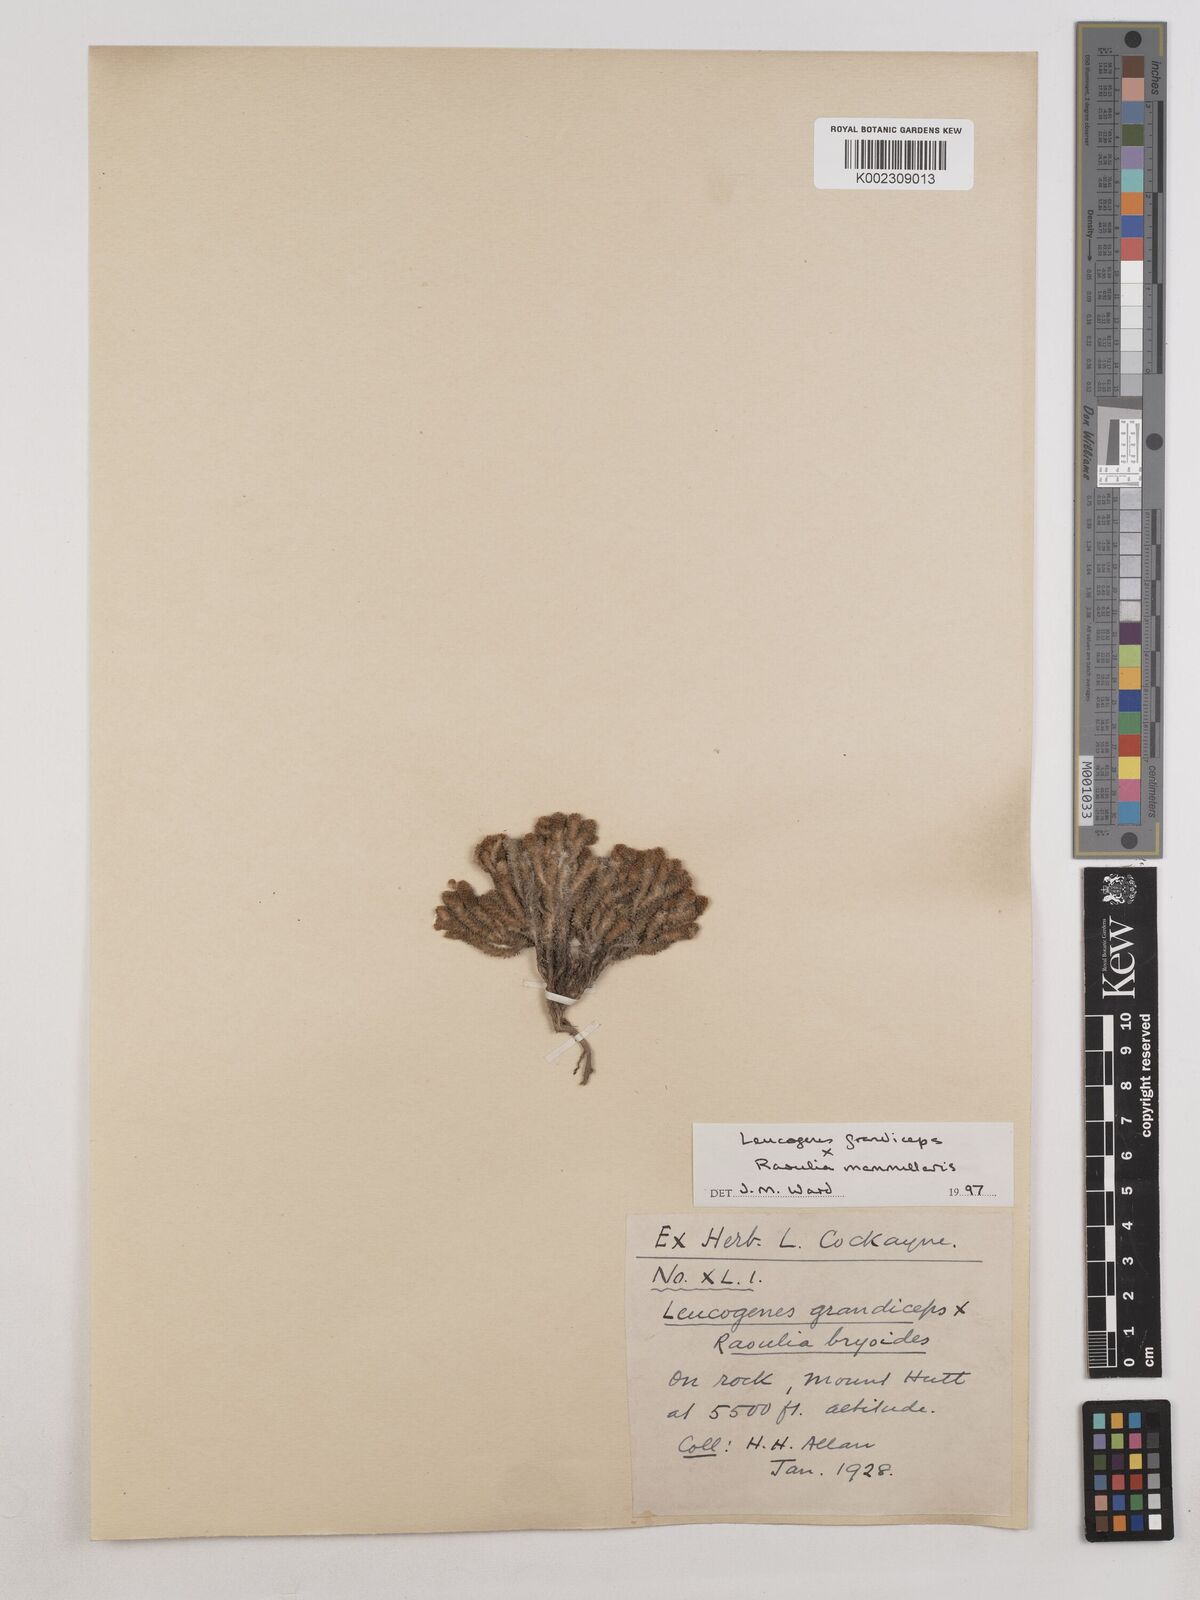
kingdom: Plantae
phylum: Tracheophyta
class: Magnoliopsida
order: Asterales
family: Asteraceae
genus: Leucogenes
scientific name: Leucogenes grandiceps
